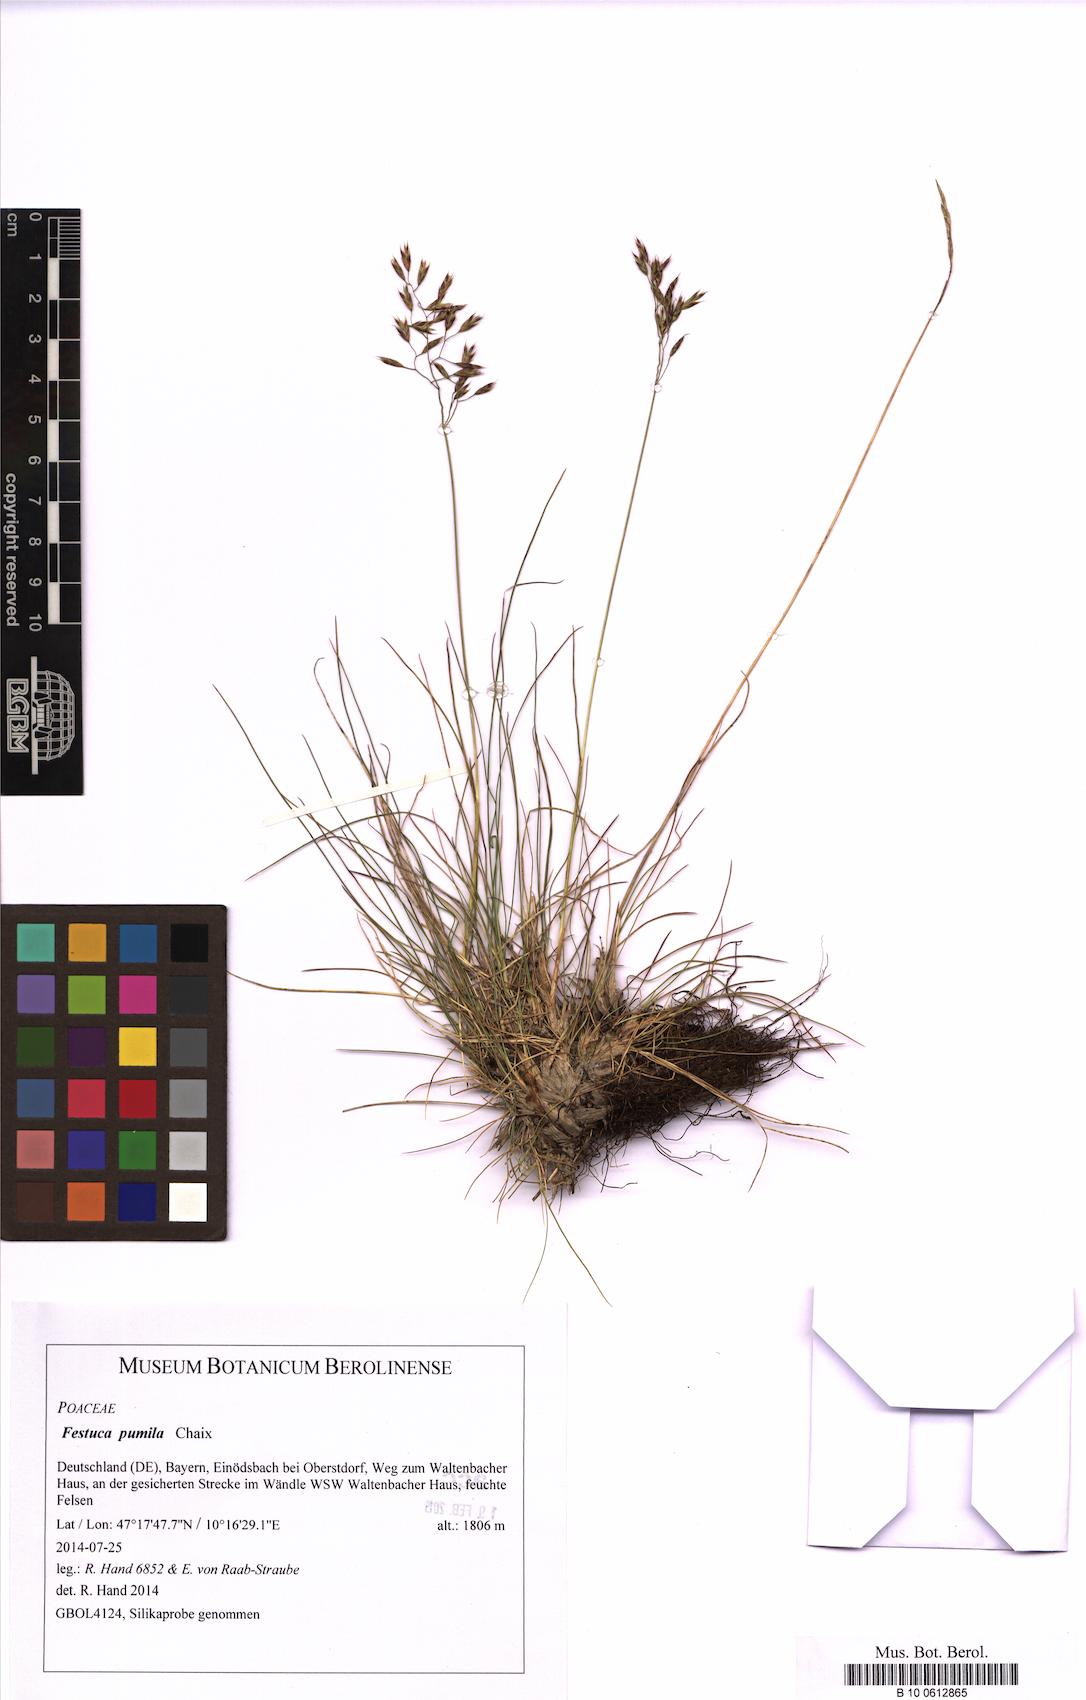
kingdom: Plantae
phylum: Tracheophyta
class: Liliopsida
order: Poales
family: Poaceae
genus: Festuca
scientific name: Festuca quadriflora
